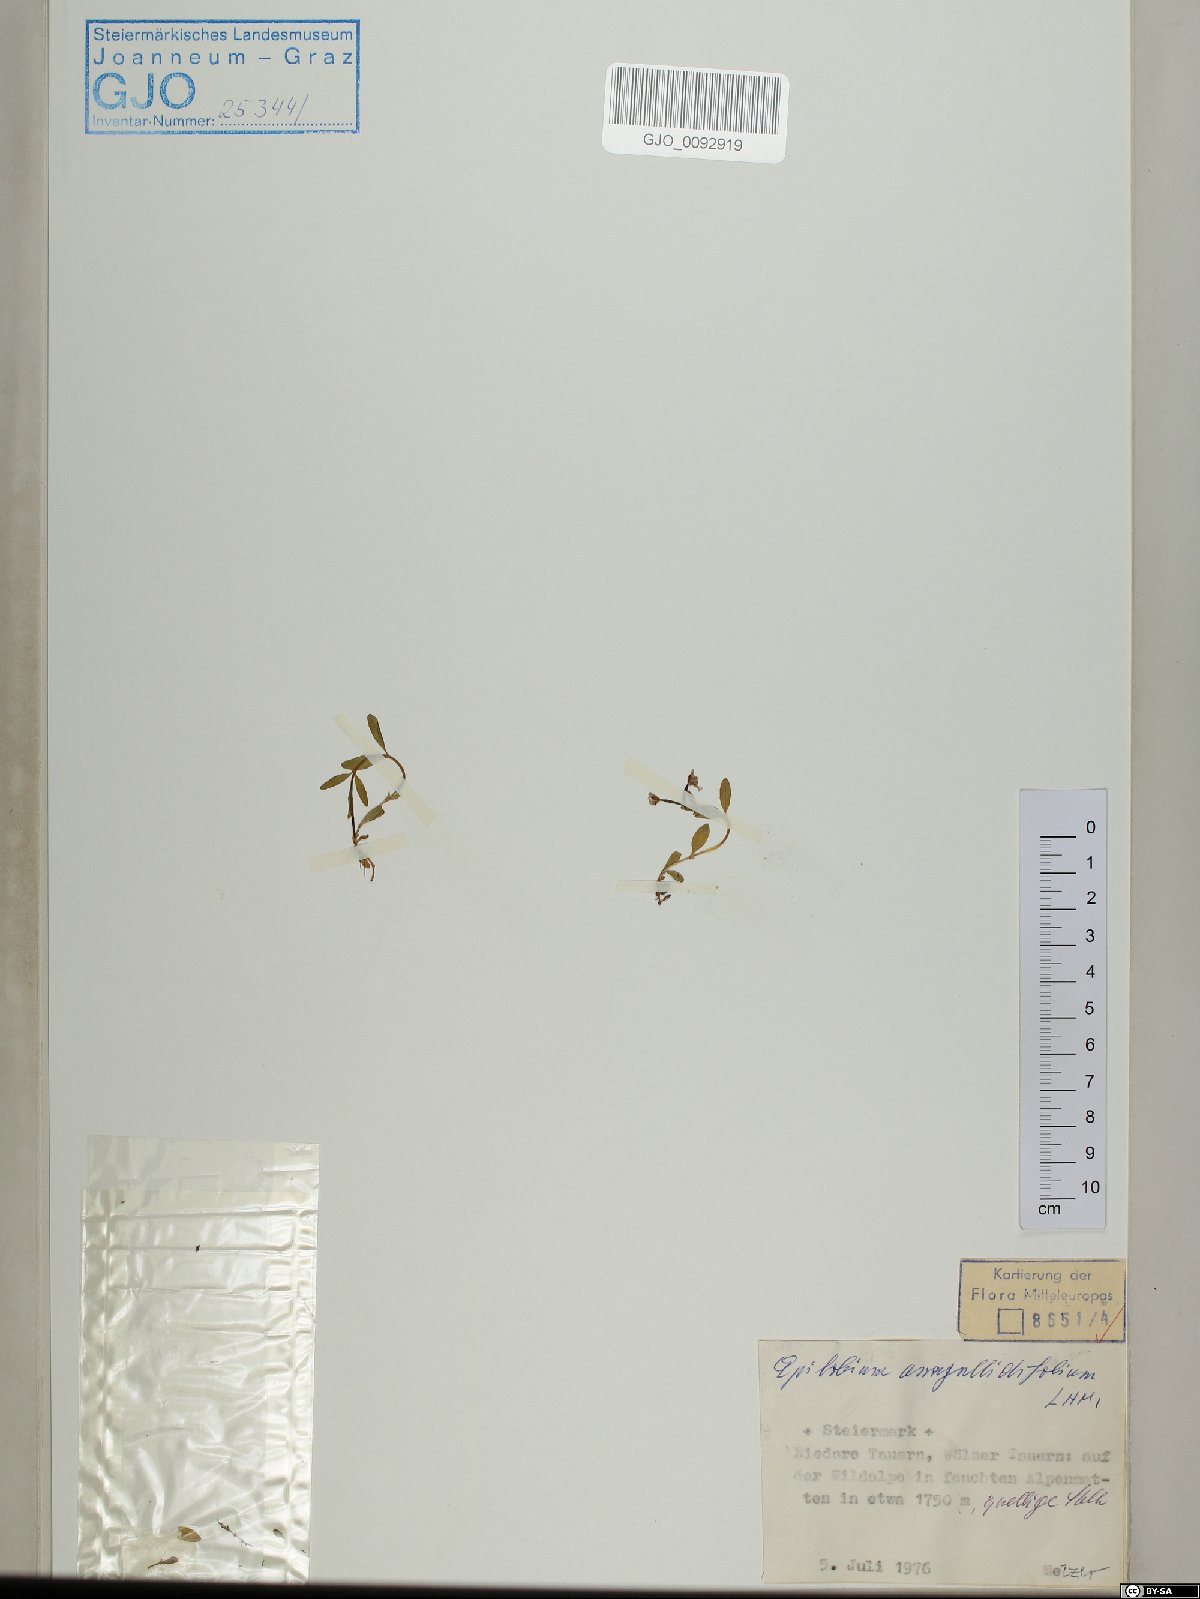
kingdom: Plantae
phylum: Tracheophyta
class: Magnoliopsida
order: Myrtales
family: Onagraceae
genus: Epilobium
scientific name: Epilobium anagallidifolium
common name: Alpine willowherb
